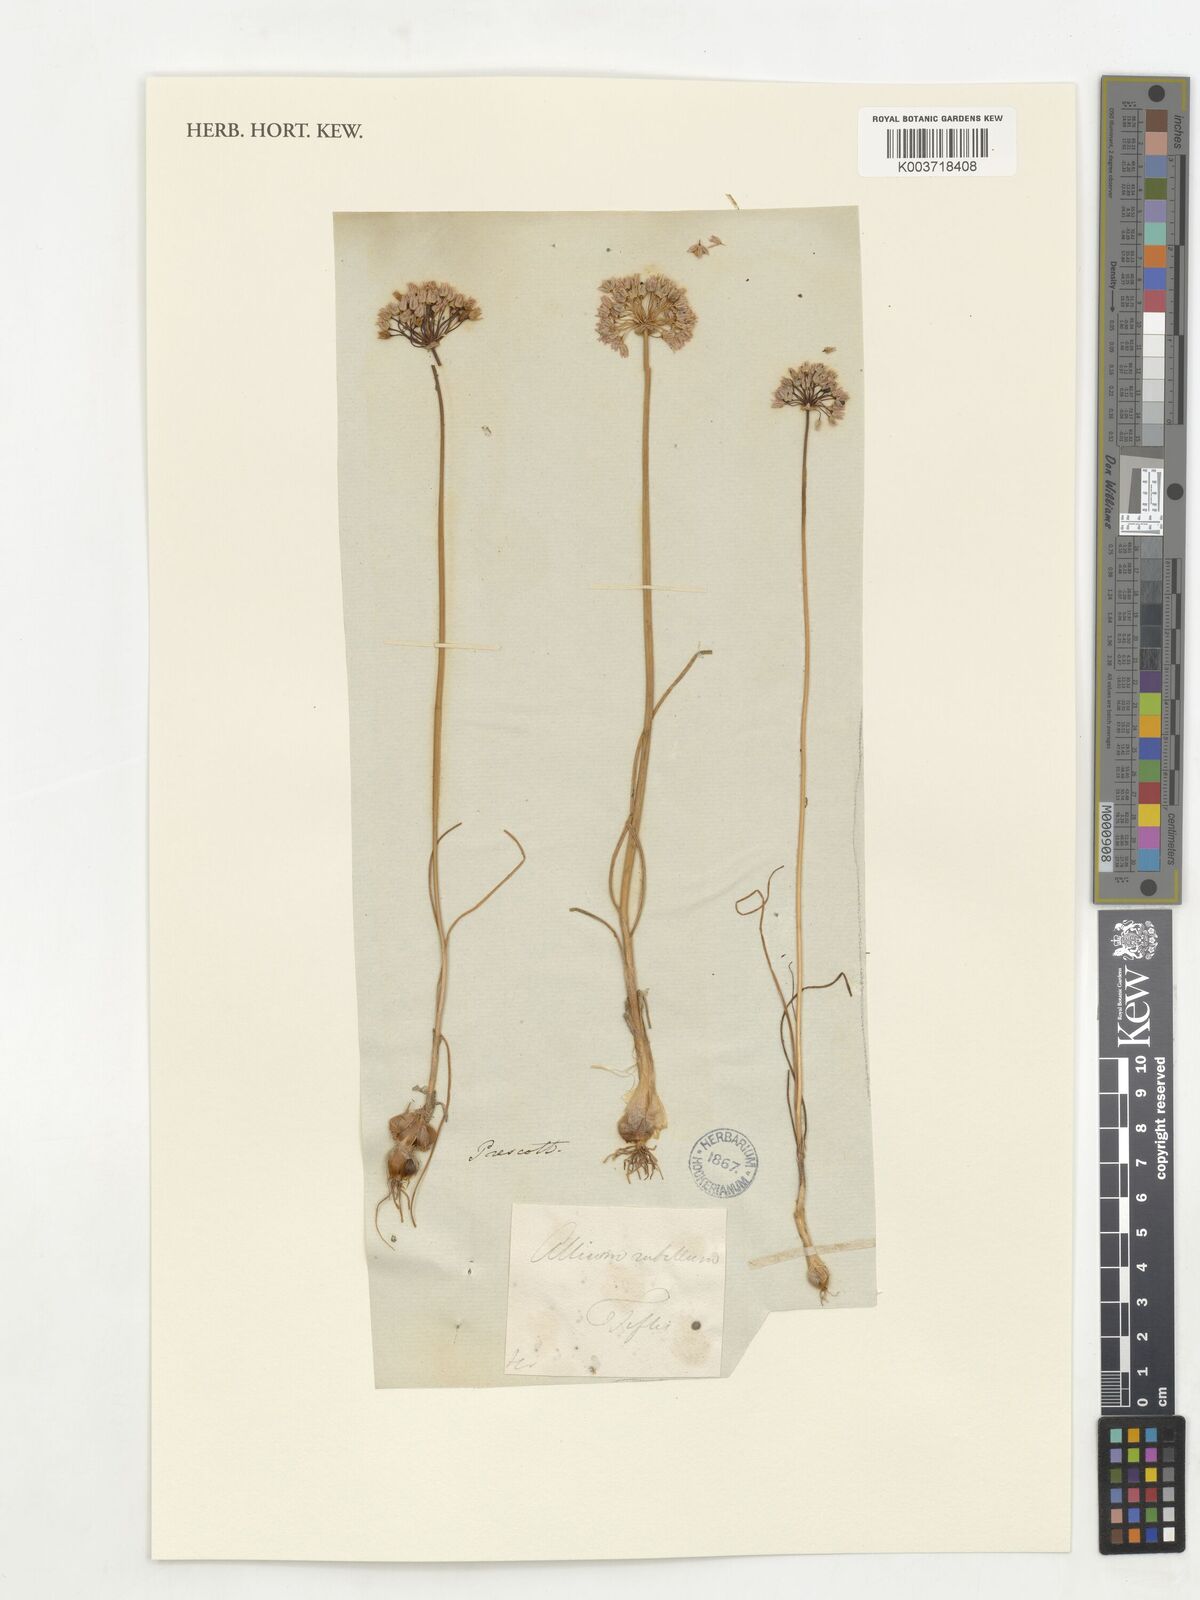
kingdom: Plantae
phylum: Tracheophyta
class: Liliopsida
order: Asparagales
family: Amaryllidaceae
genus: Allium
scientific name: Allium rubellum
